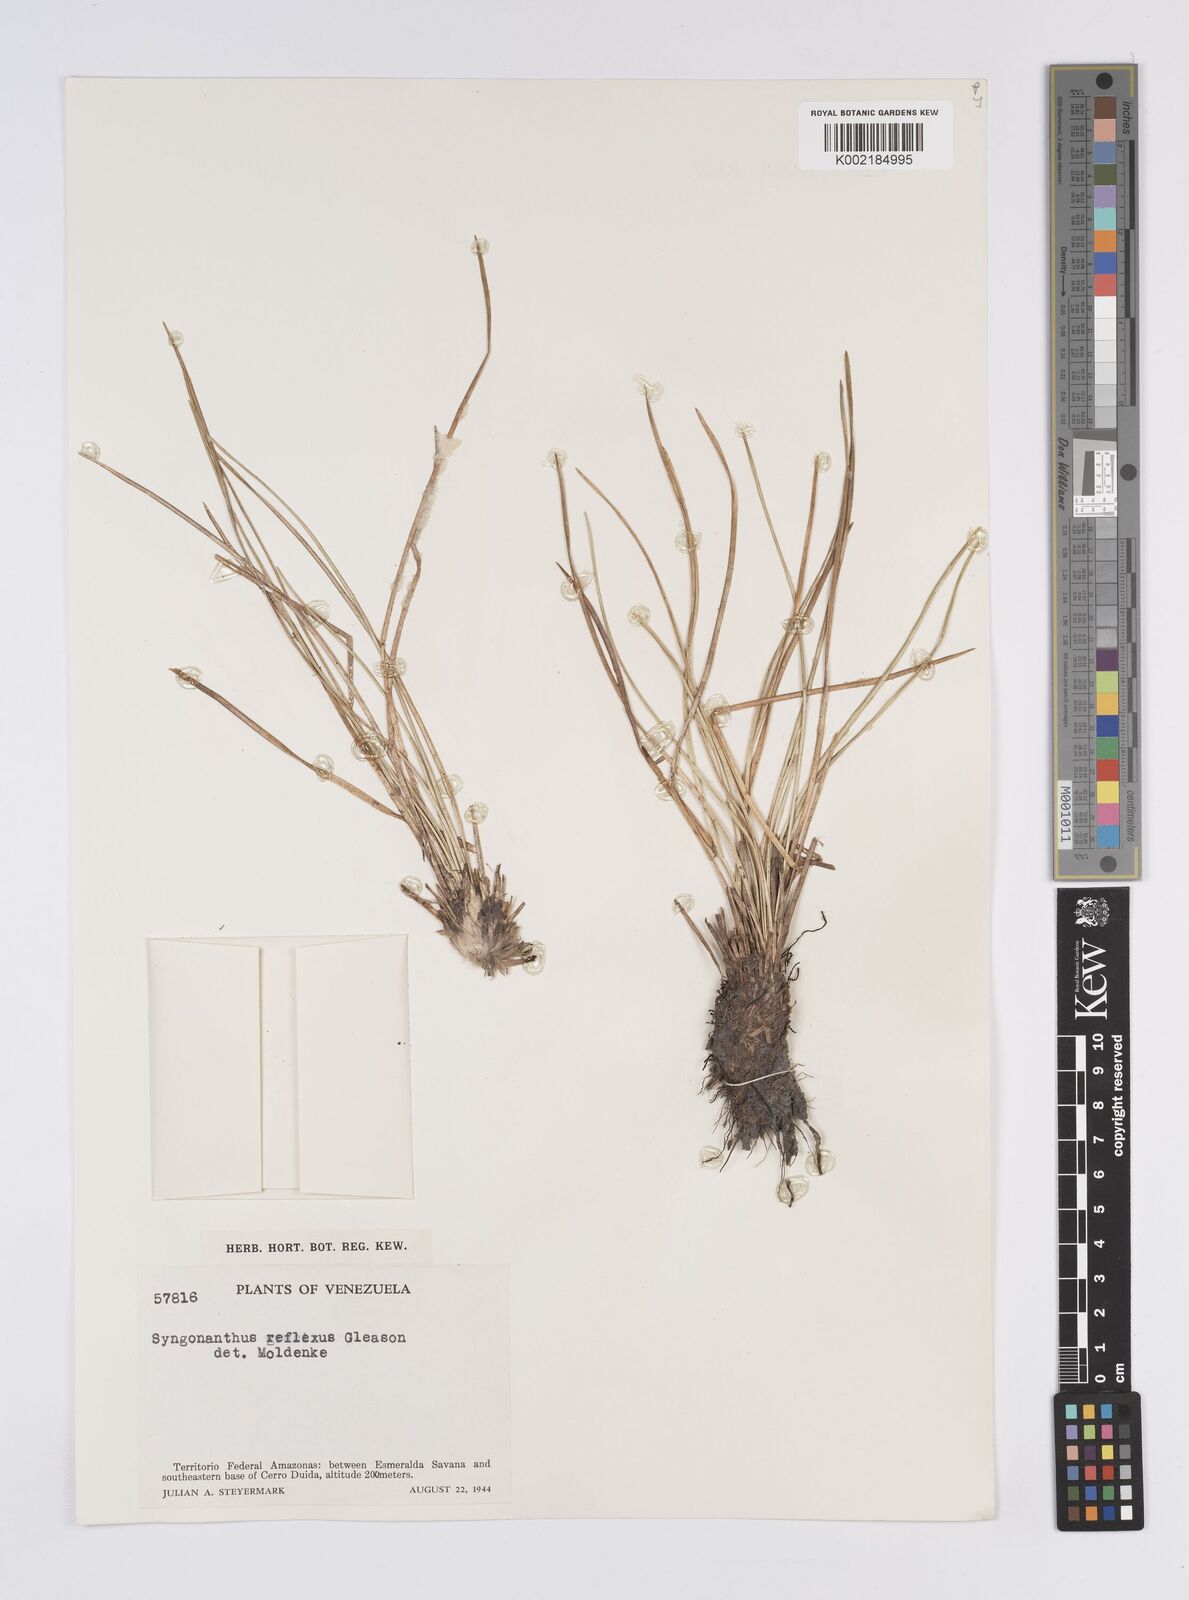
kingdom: Plantae
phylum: Tracheophyta
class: Liliopsida
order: Poales
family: Eriocaulaceae
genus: Comanthera
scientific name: Comanthera reflexa
